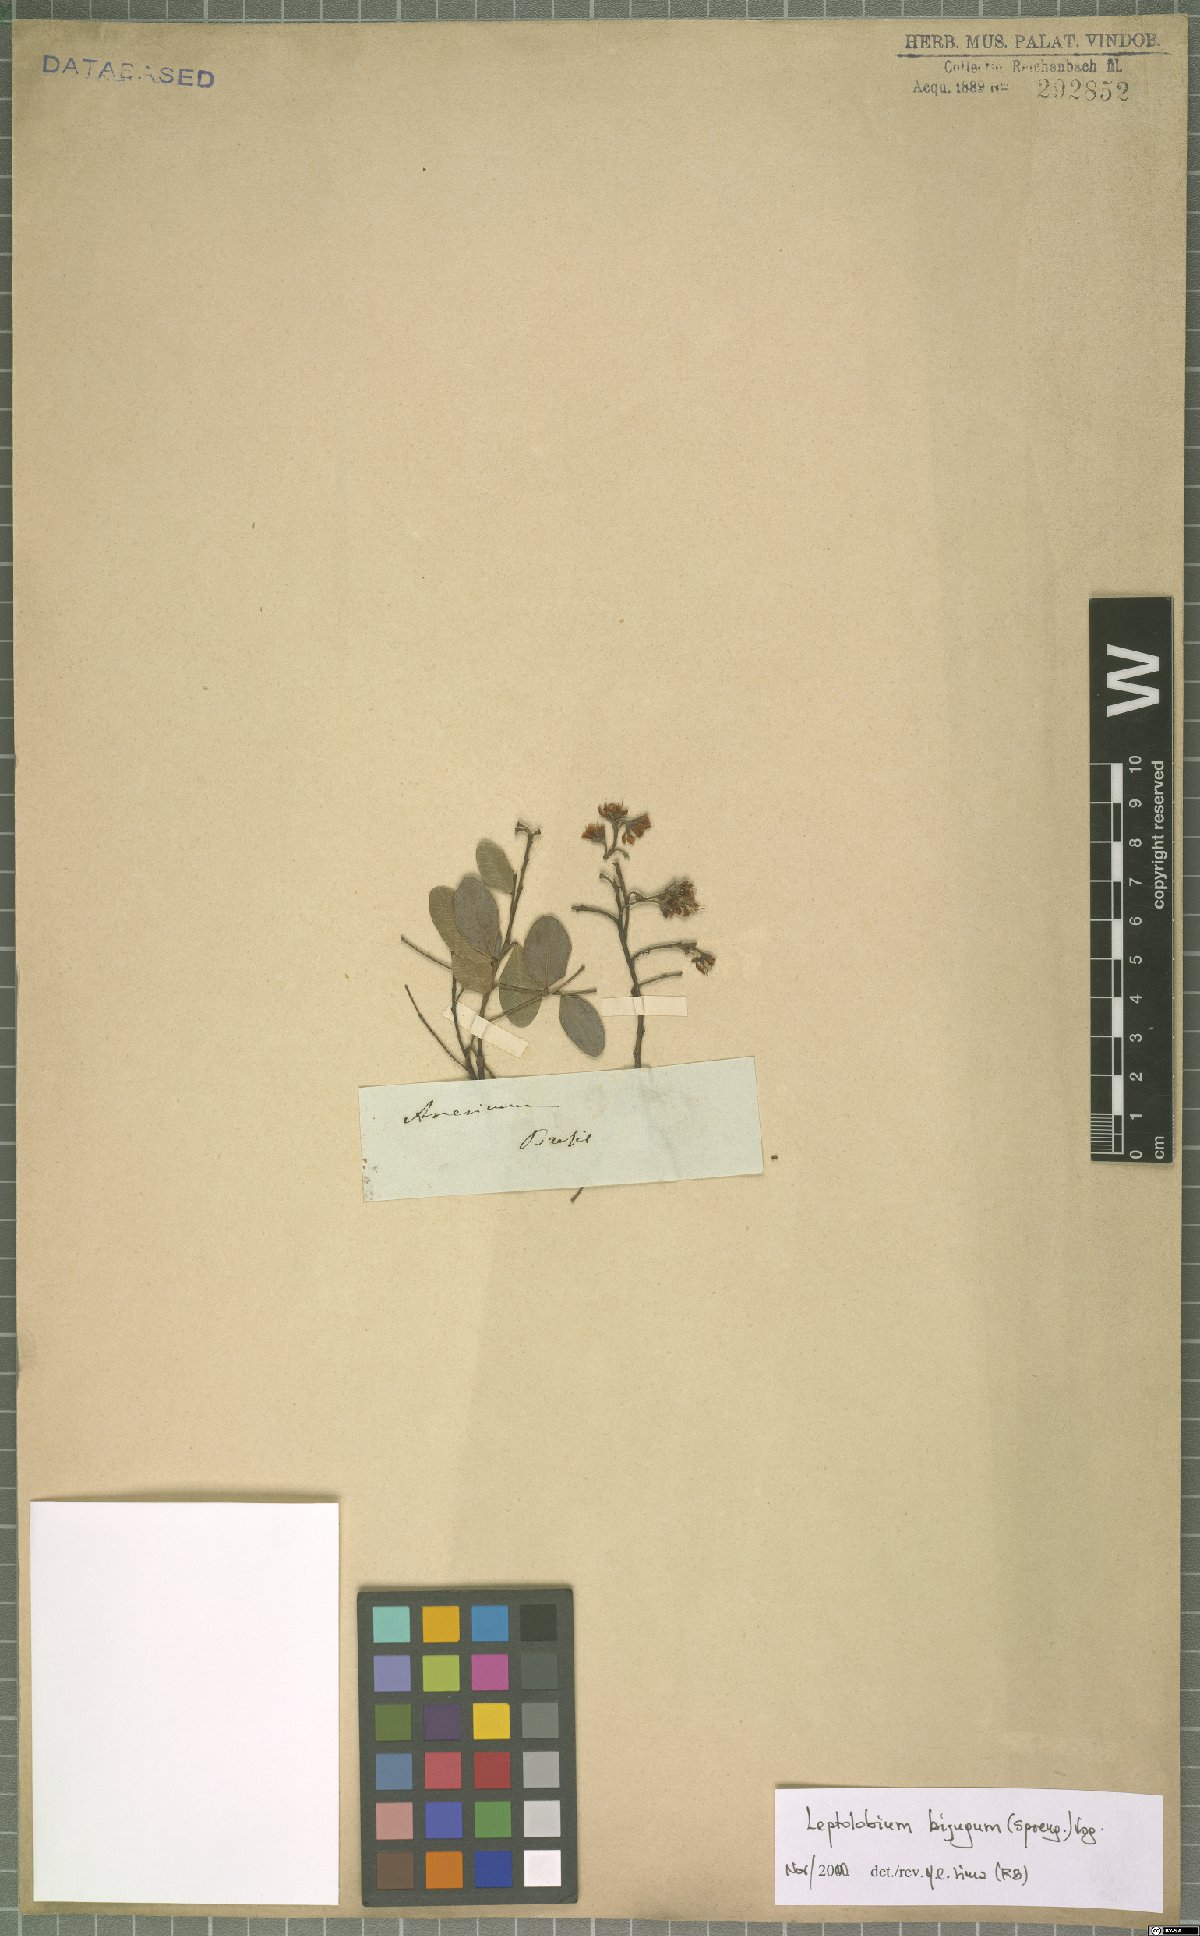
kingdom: Plantae
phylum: Tracheophyta
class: Magnoliopsida
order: Fabales
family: Fabaceae
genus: Leptolobium
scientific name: Leptolobium bijugum
